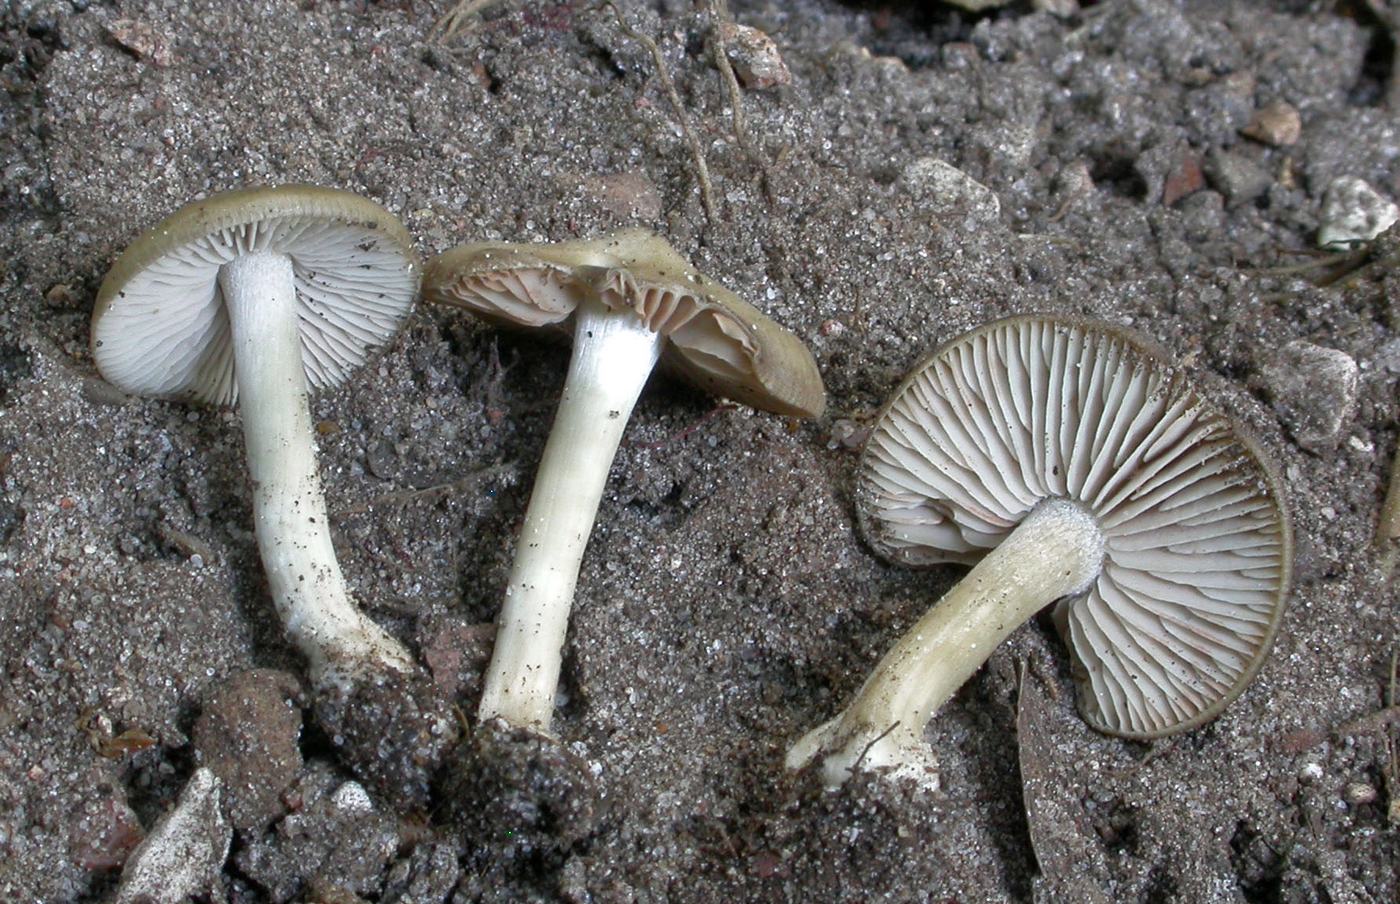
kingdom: Fungi
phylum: Basidiomycota
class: Agaricomycetes
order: Agaricales
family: Entolomataceae
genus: Entoloma
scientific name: Entoloma sordidulum
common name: smudsig rødblad
